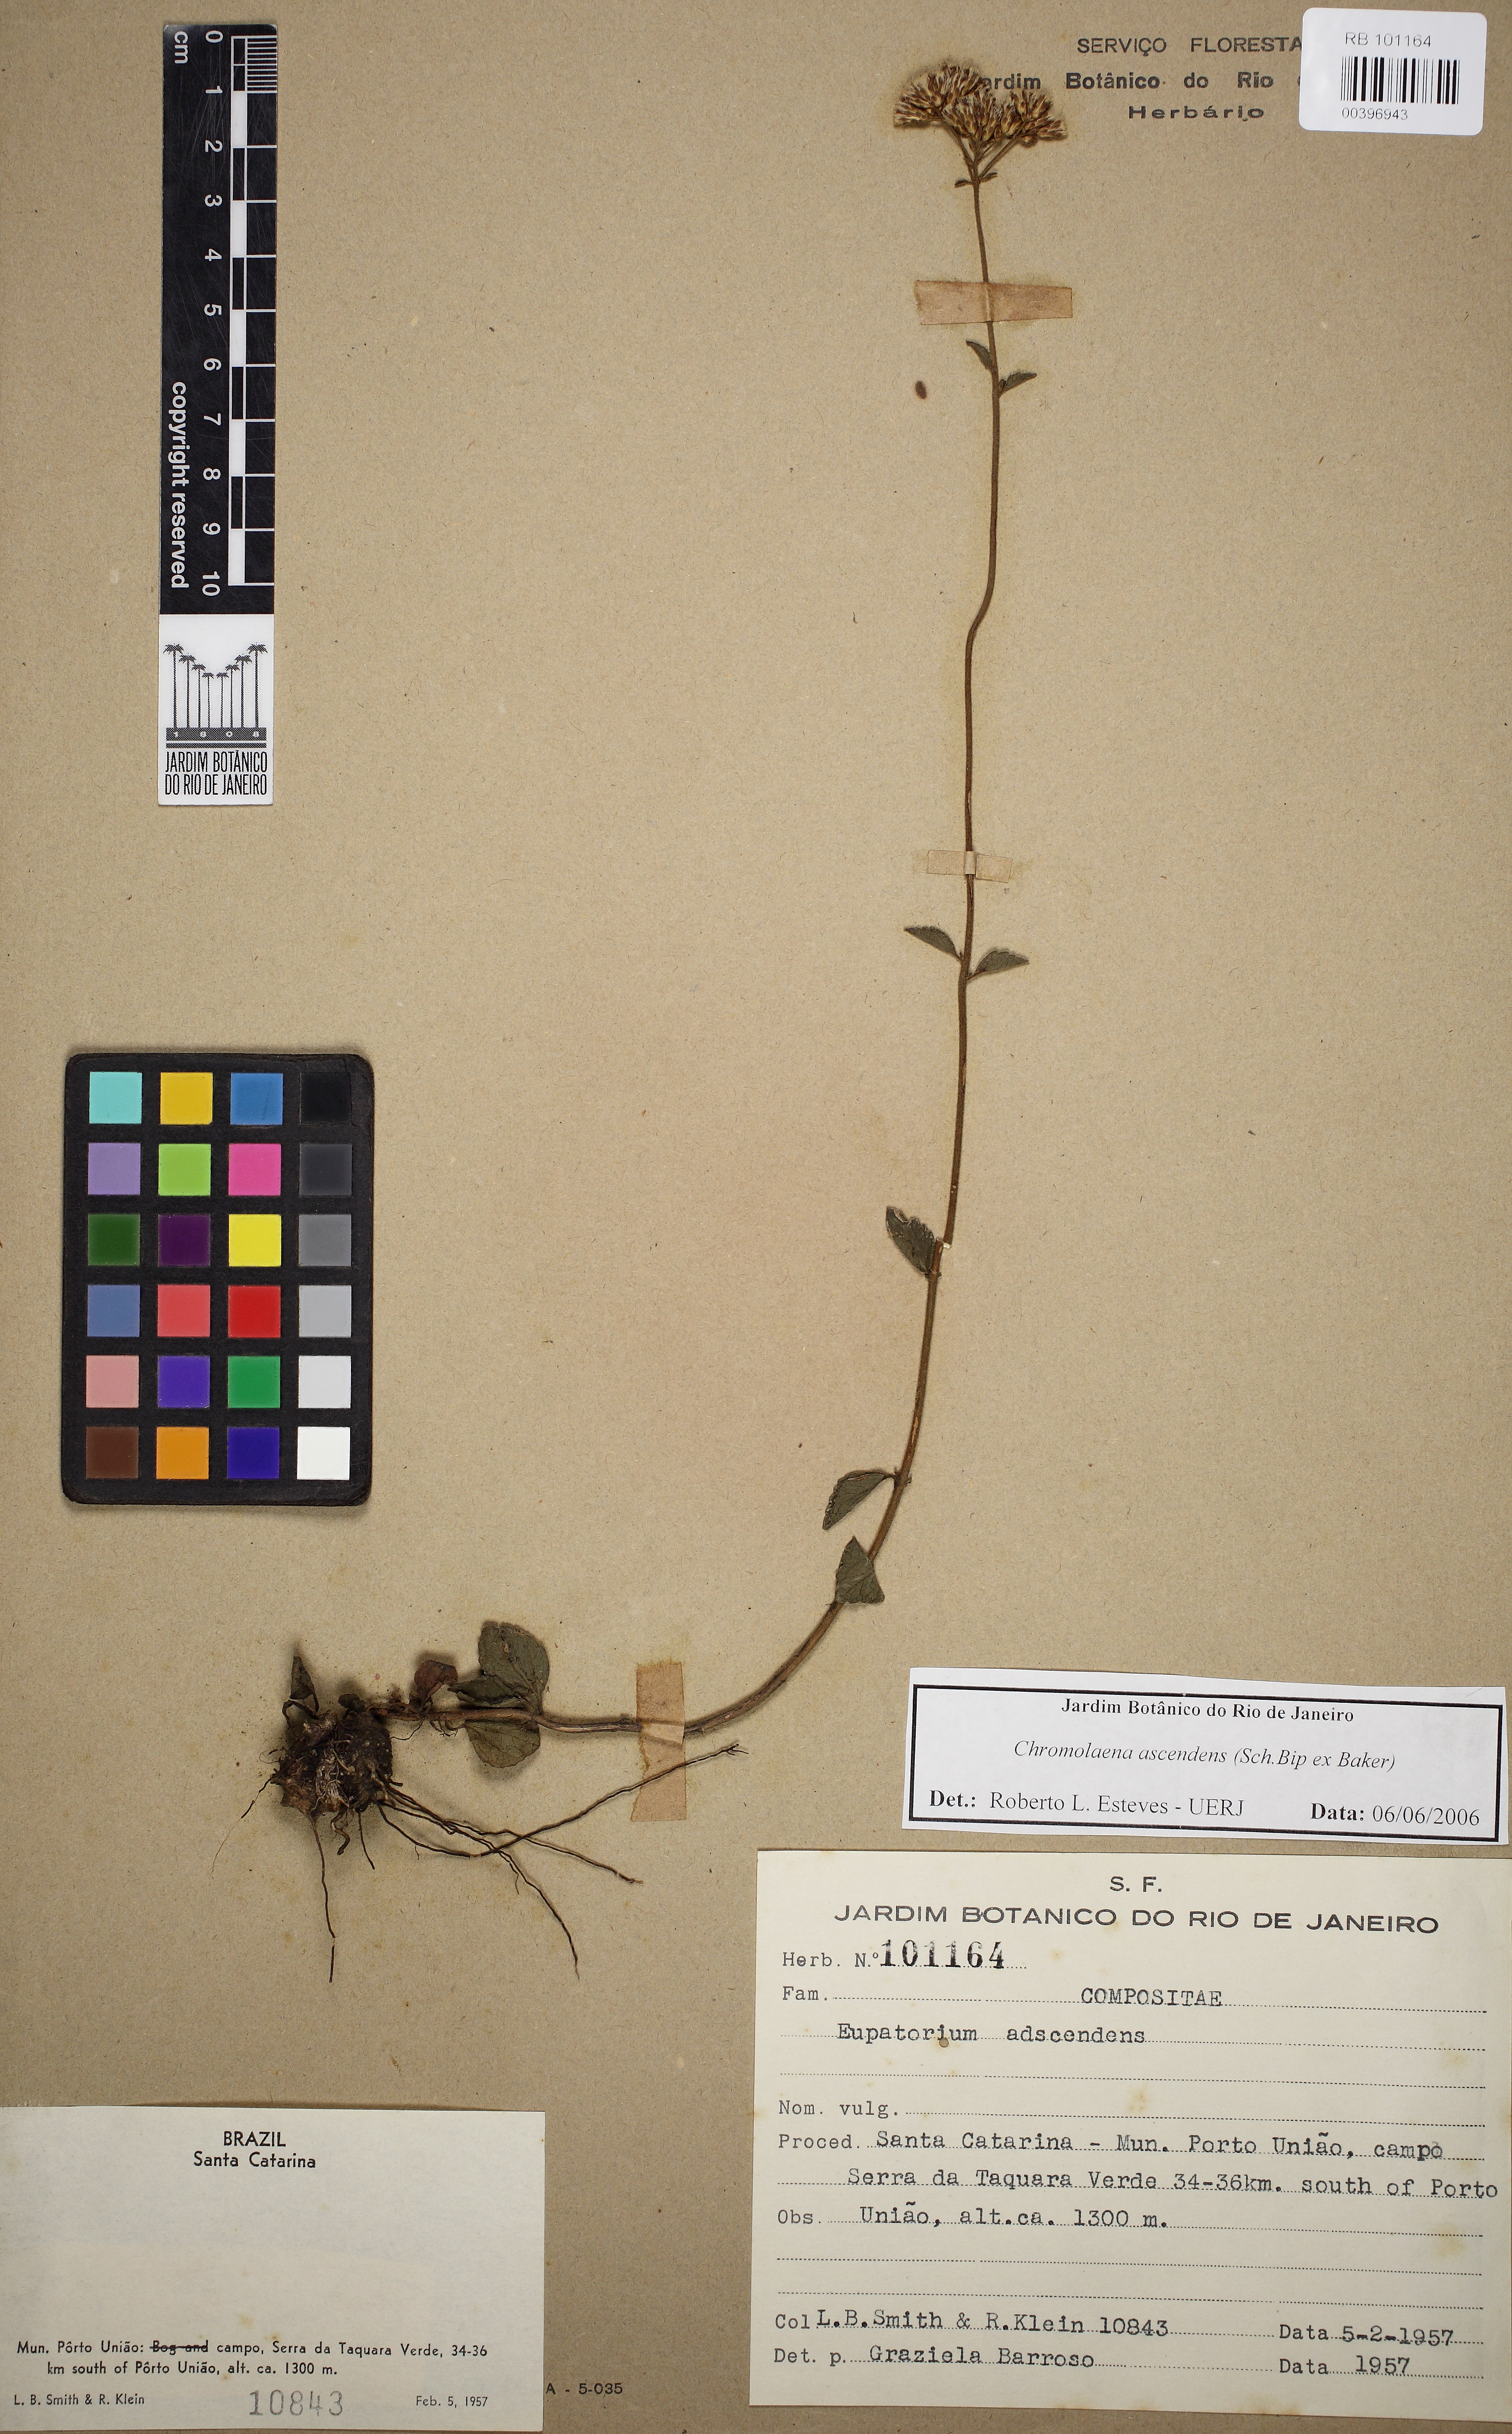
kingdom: Plantae
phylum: Tracheophyta
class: Magnoliopsida
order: Asterales
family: Asteraceae
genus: Chromolaena
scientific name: Chromolaena latisquamulosa
